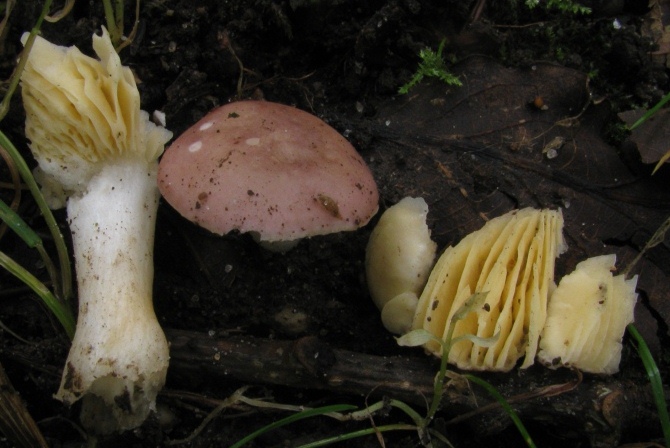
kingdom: Fungi
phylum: Basidiomycota
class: Agaricomycetes
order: Russulales
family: Russulaceae
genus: Russula
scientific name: Russula odorata
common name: duft-skørhat
